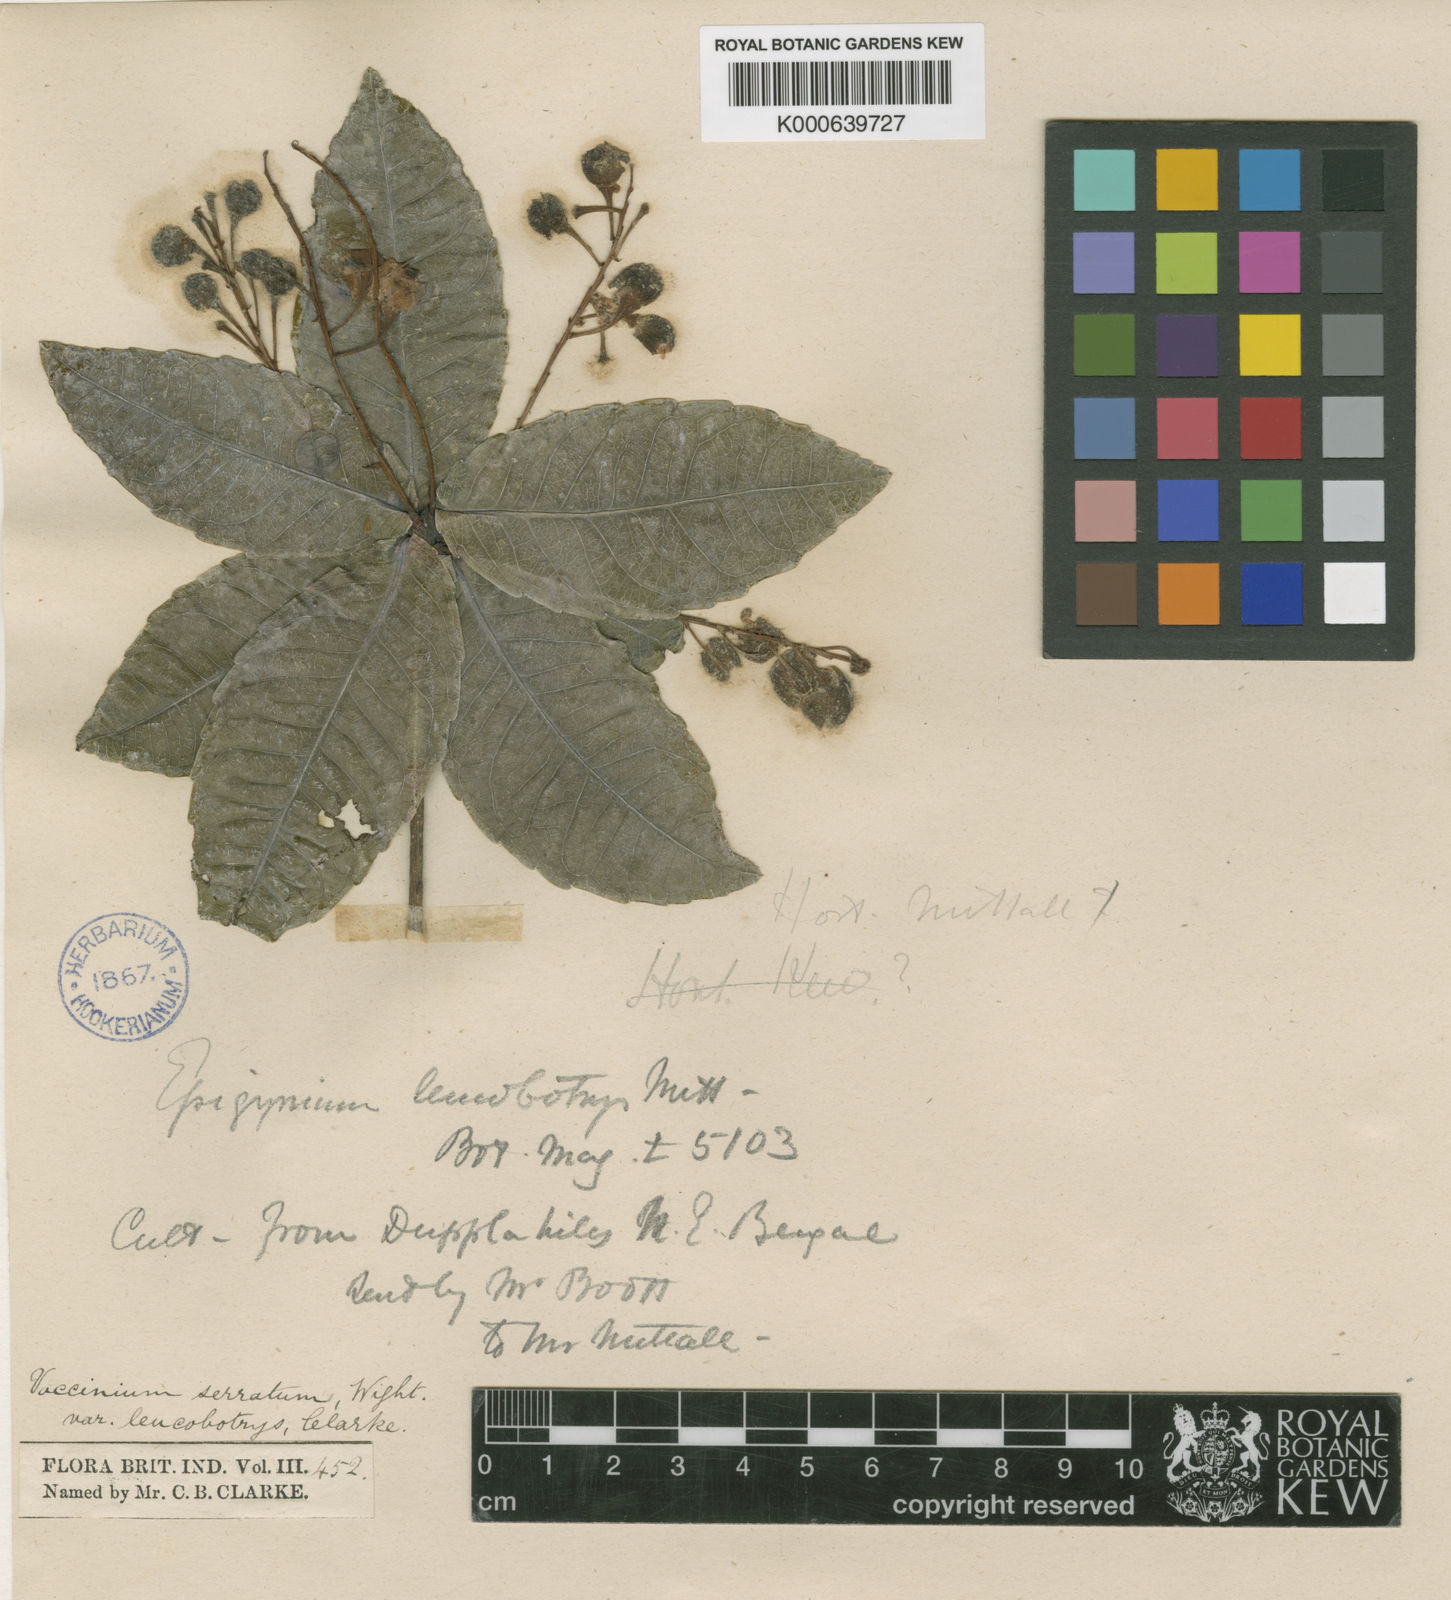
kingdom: Plantae
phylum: Tracheophyta
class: Magnoliopsida
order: Ericales
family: Ericaceae
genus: Vaccinium
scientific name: Vaccinium
